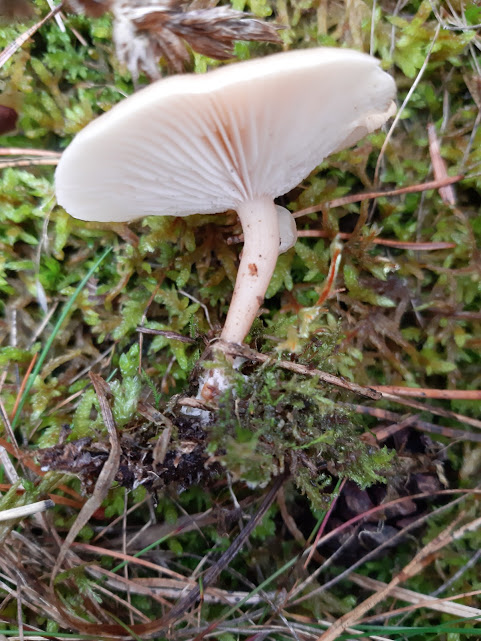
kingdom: Fungi
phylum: Basidiomycota
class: Agaricomycetes
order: Agaricales
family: Tricholomataceae
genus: Clitocybe
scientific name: Clitocybe
